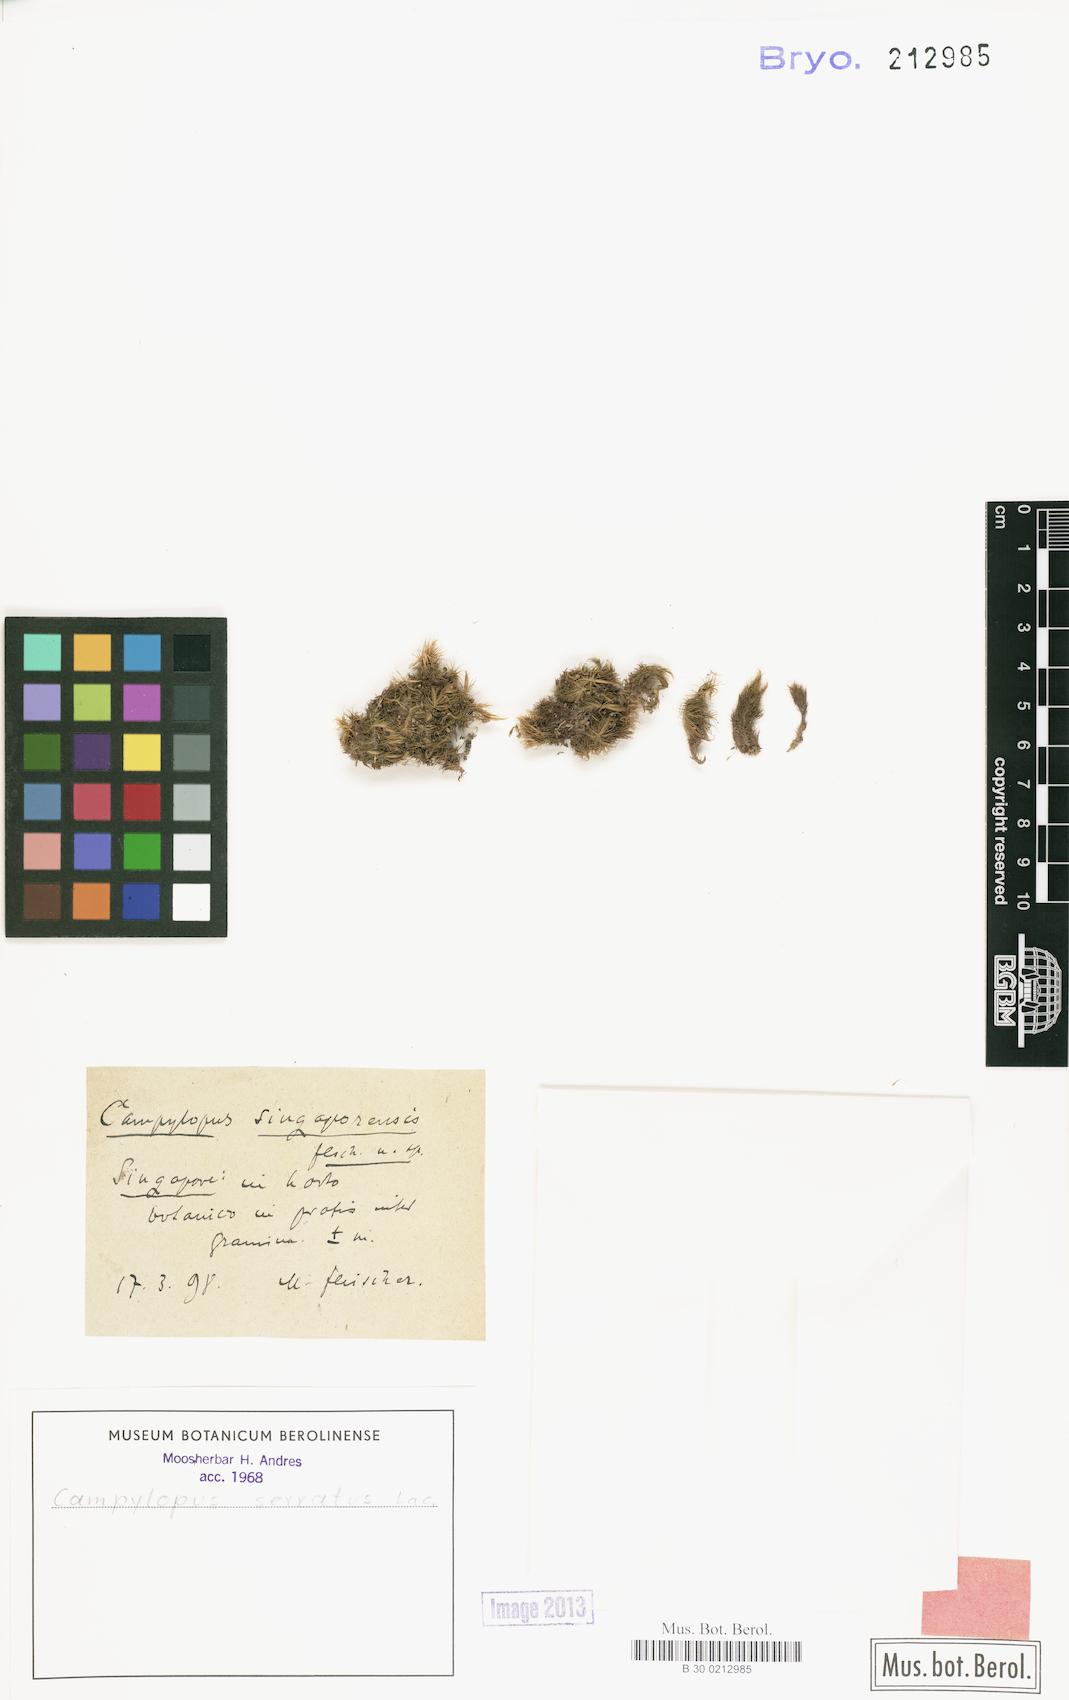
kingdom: Plantae
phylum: Bryophyta
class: Bryopsida
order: Dicranales
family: Leucobryaceae
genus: Campylopus
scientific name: Campylopus serratus
